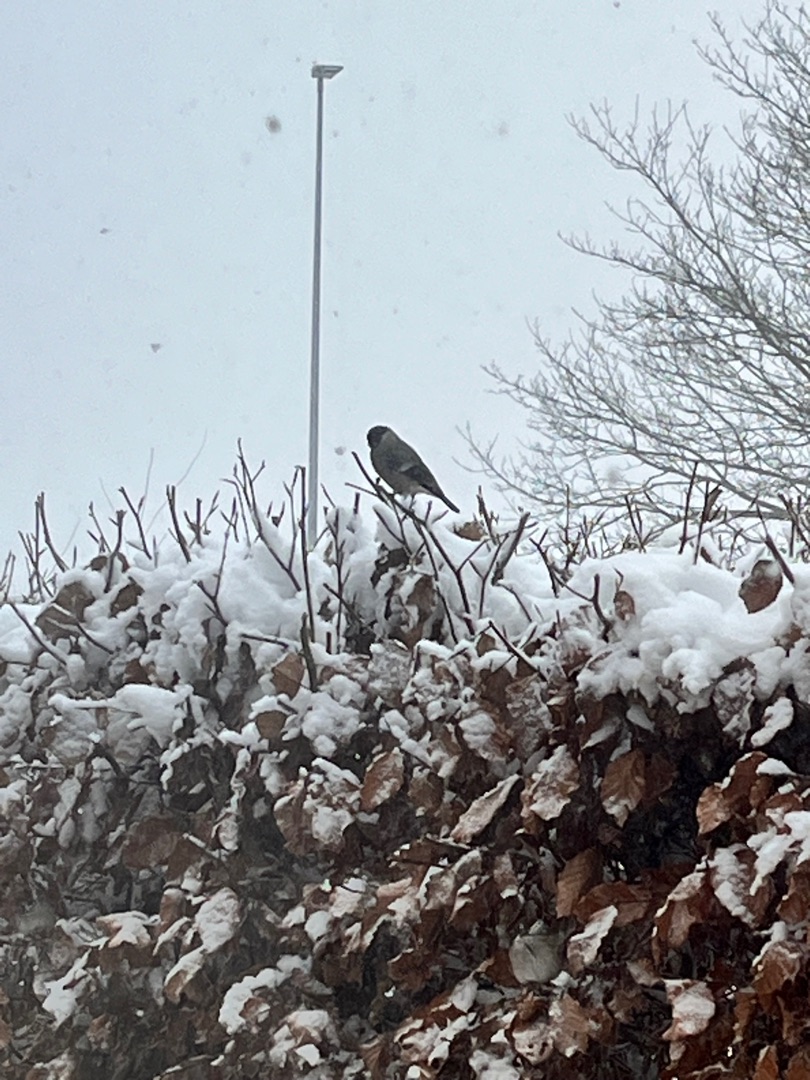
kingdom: Animalia
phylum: Chordata
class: Aves
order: Passeriformes
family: Fringillidae
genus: Pyrrhula
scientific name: Pyrrhula pyrrhula
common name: Dompap
